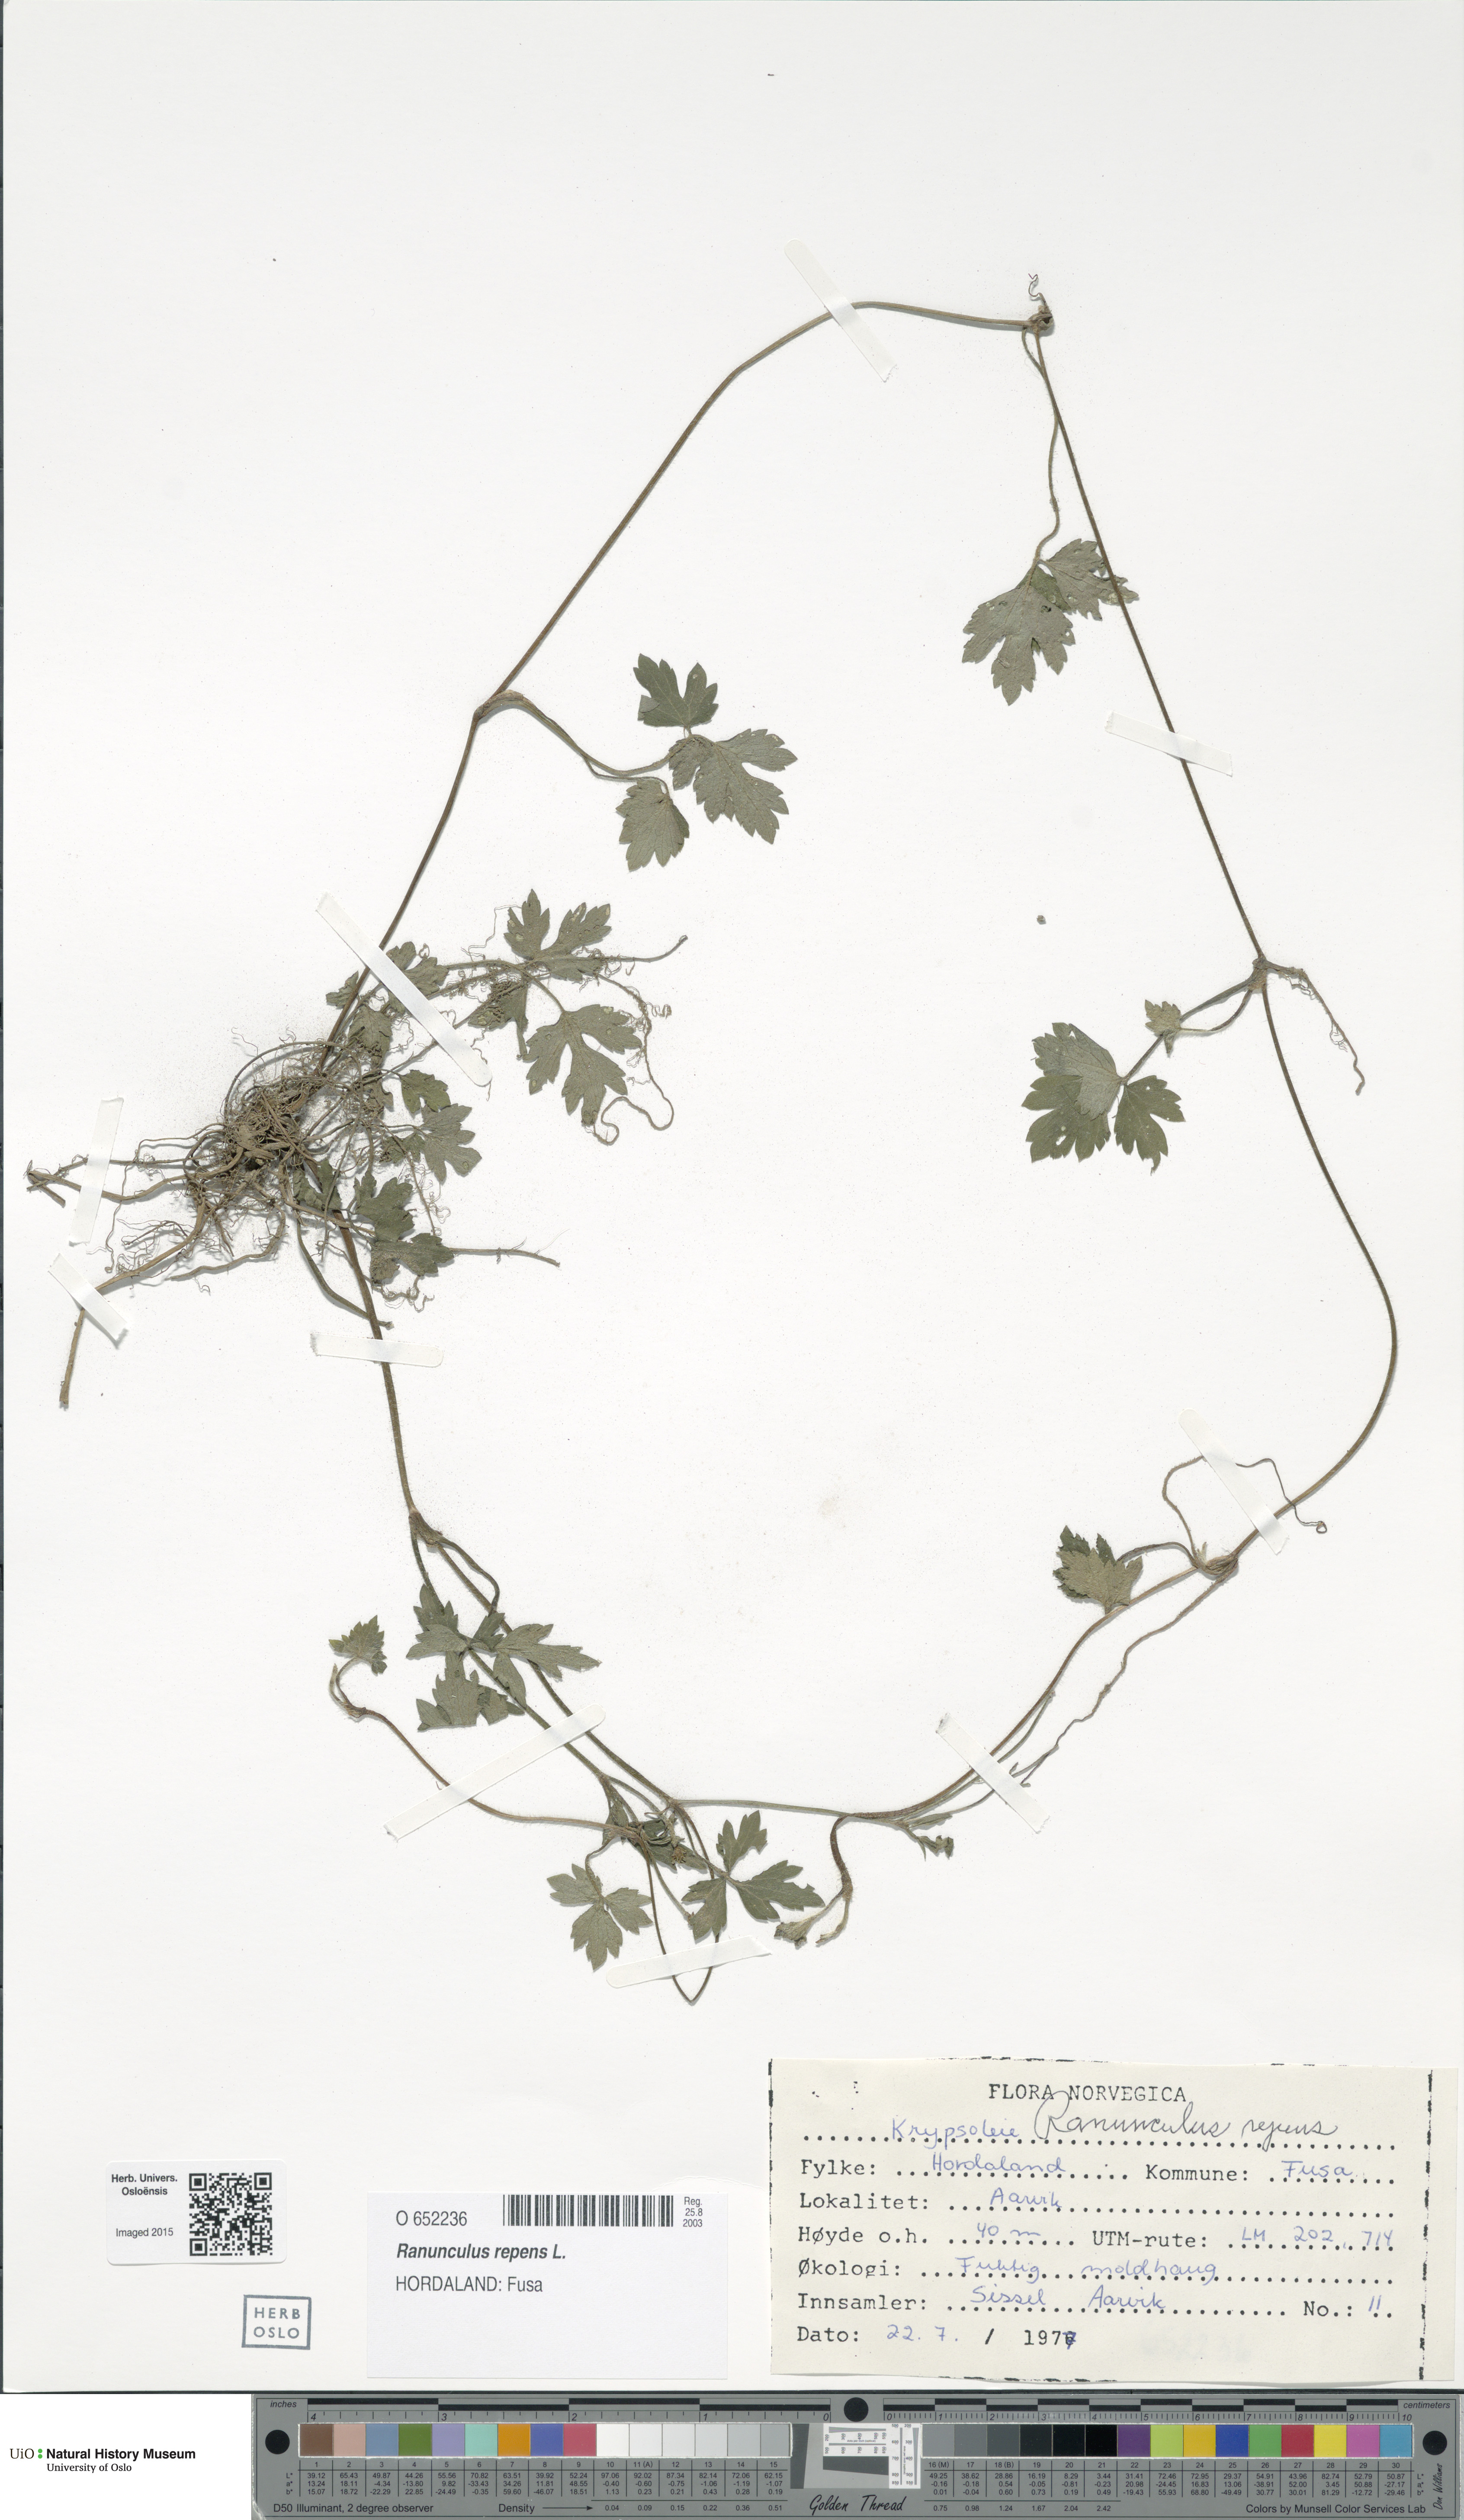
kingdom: Plantae
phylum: Tracheophyta
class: Magnoliopsida
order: Ranunculales
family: Ranunculaceae
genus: Ranunculus
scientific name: Ranunculus repens
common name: Creeping buttercup
